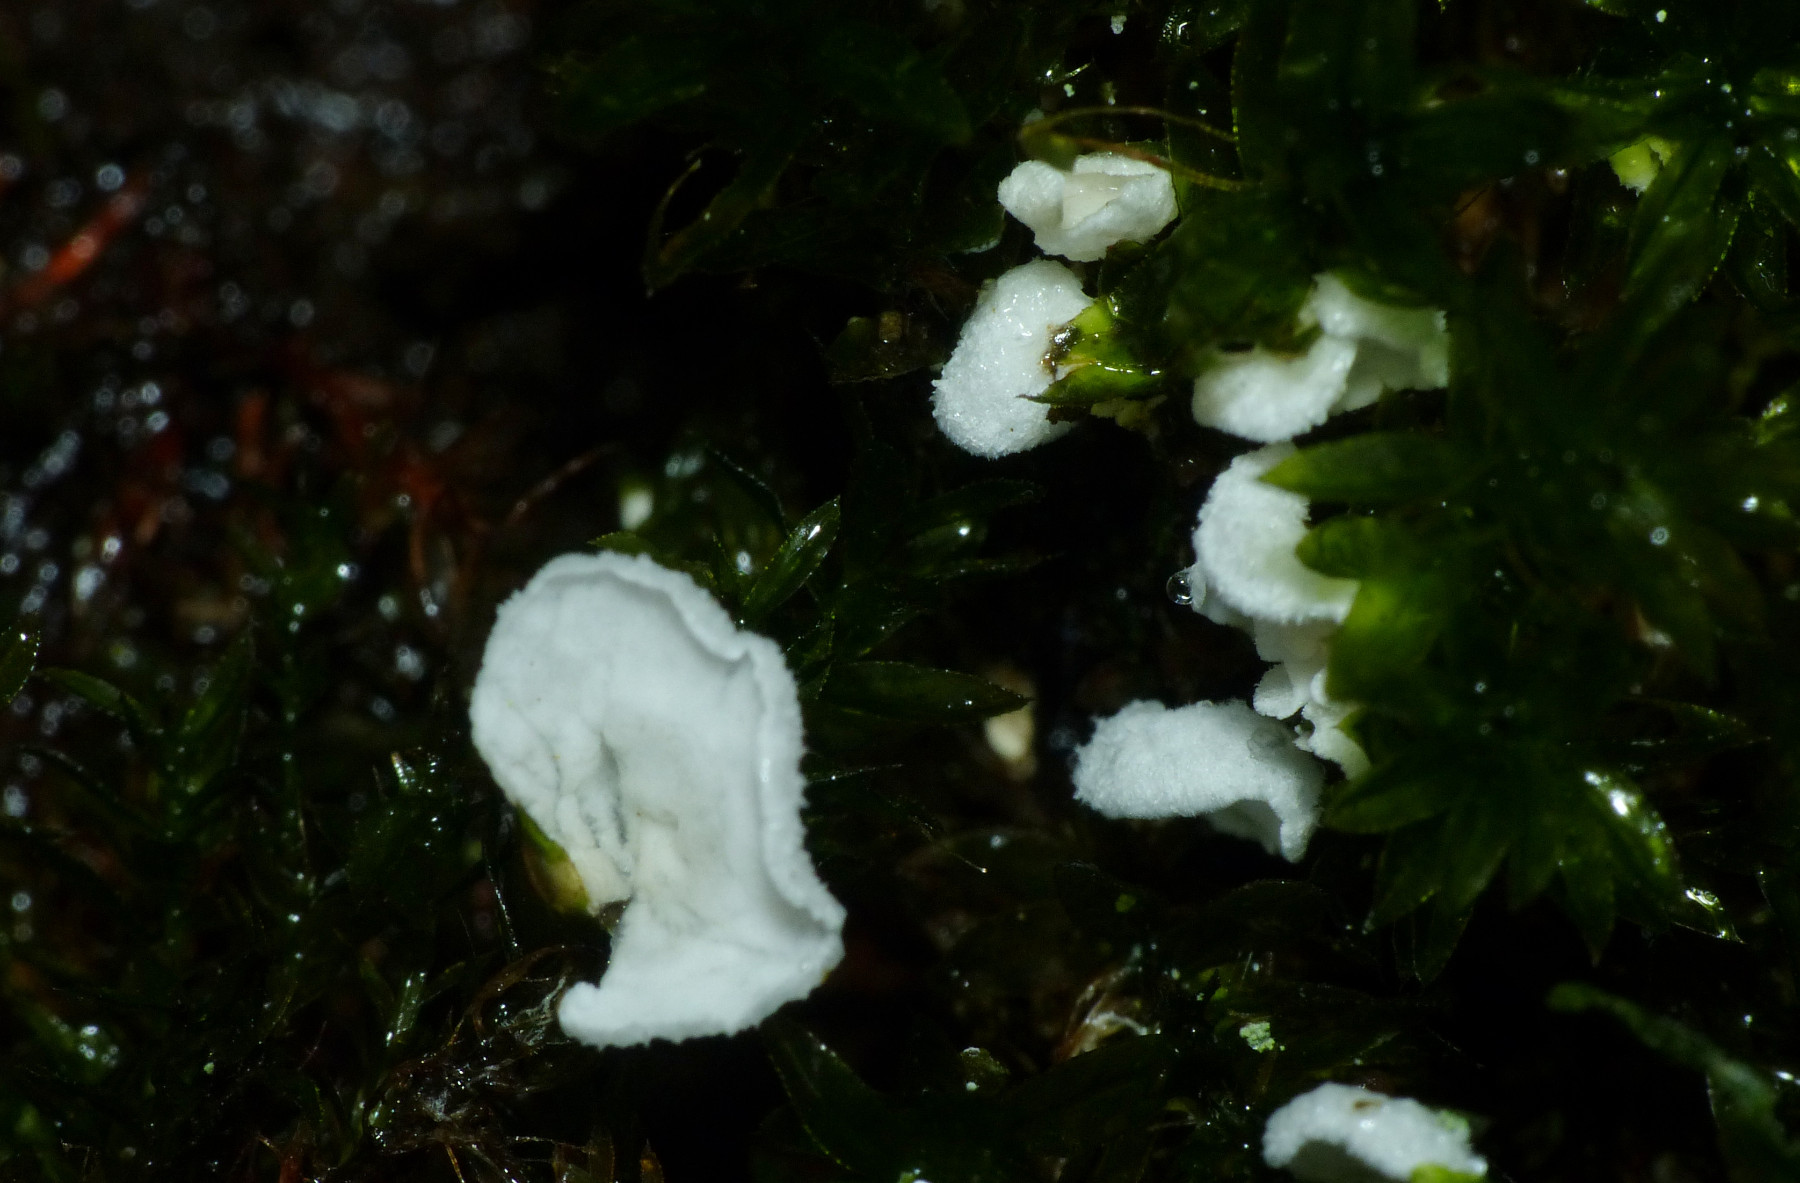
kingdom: Fungi
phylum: Basidiomycota
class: Agaricomycetes
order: Agaricales
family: Tricholomataceae
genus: Rimbachia
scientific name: Rimbachia arachnoidea
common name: Almindelig mosskål
